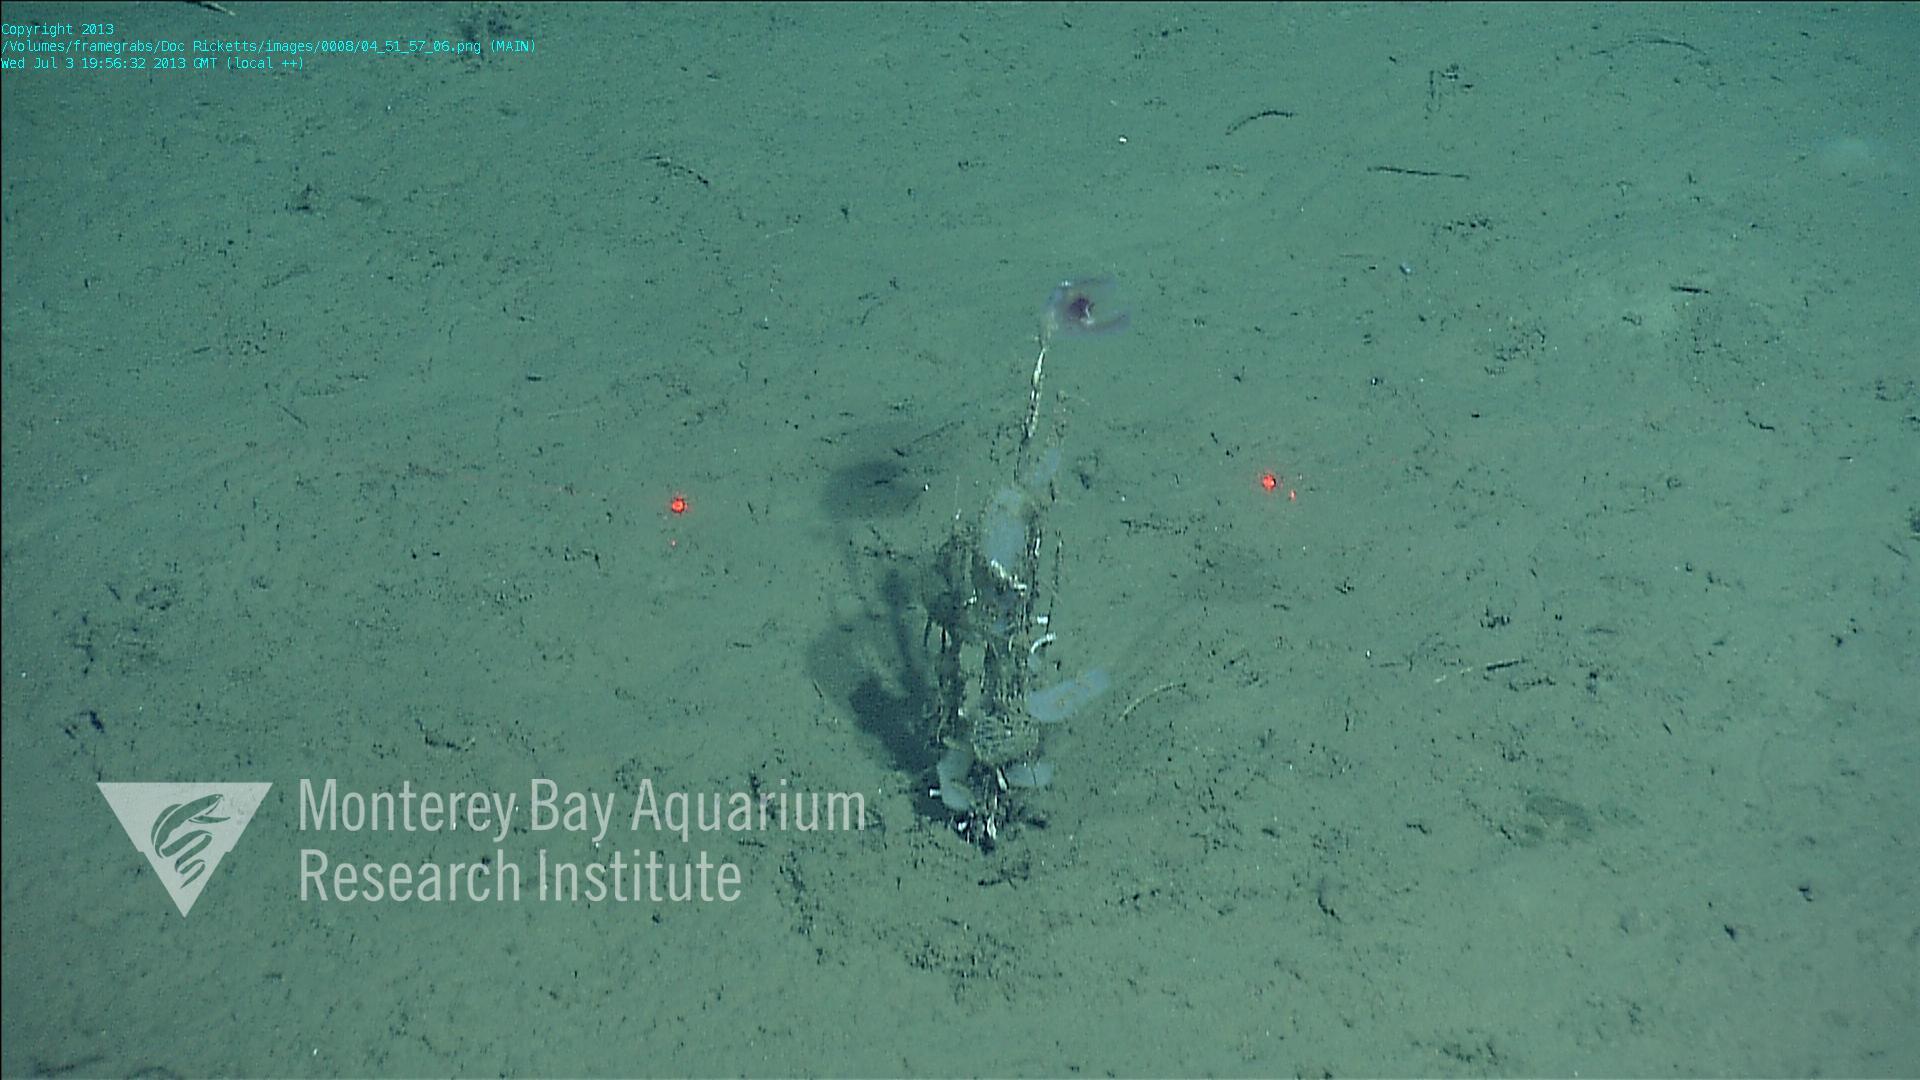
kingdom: Animalia
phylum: Porifera
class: Hexactinellida
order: Lyssacinosida
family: Rossellidae
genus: Bathydorus
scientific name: Bathydorus spinosus
